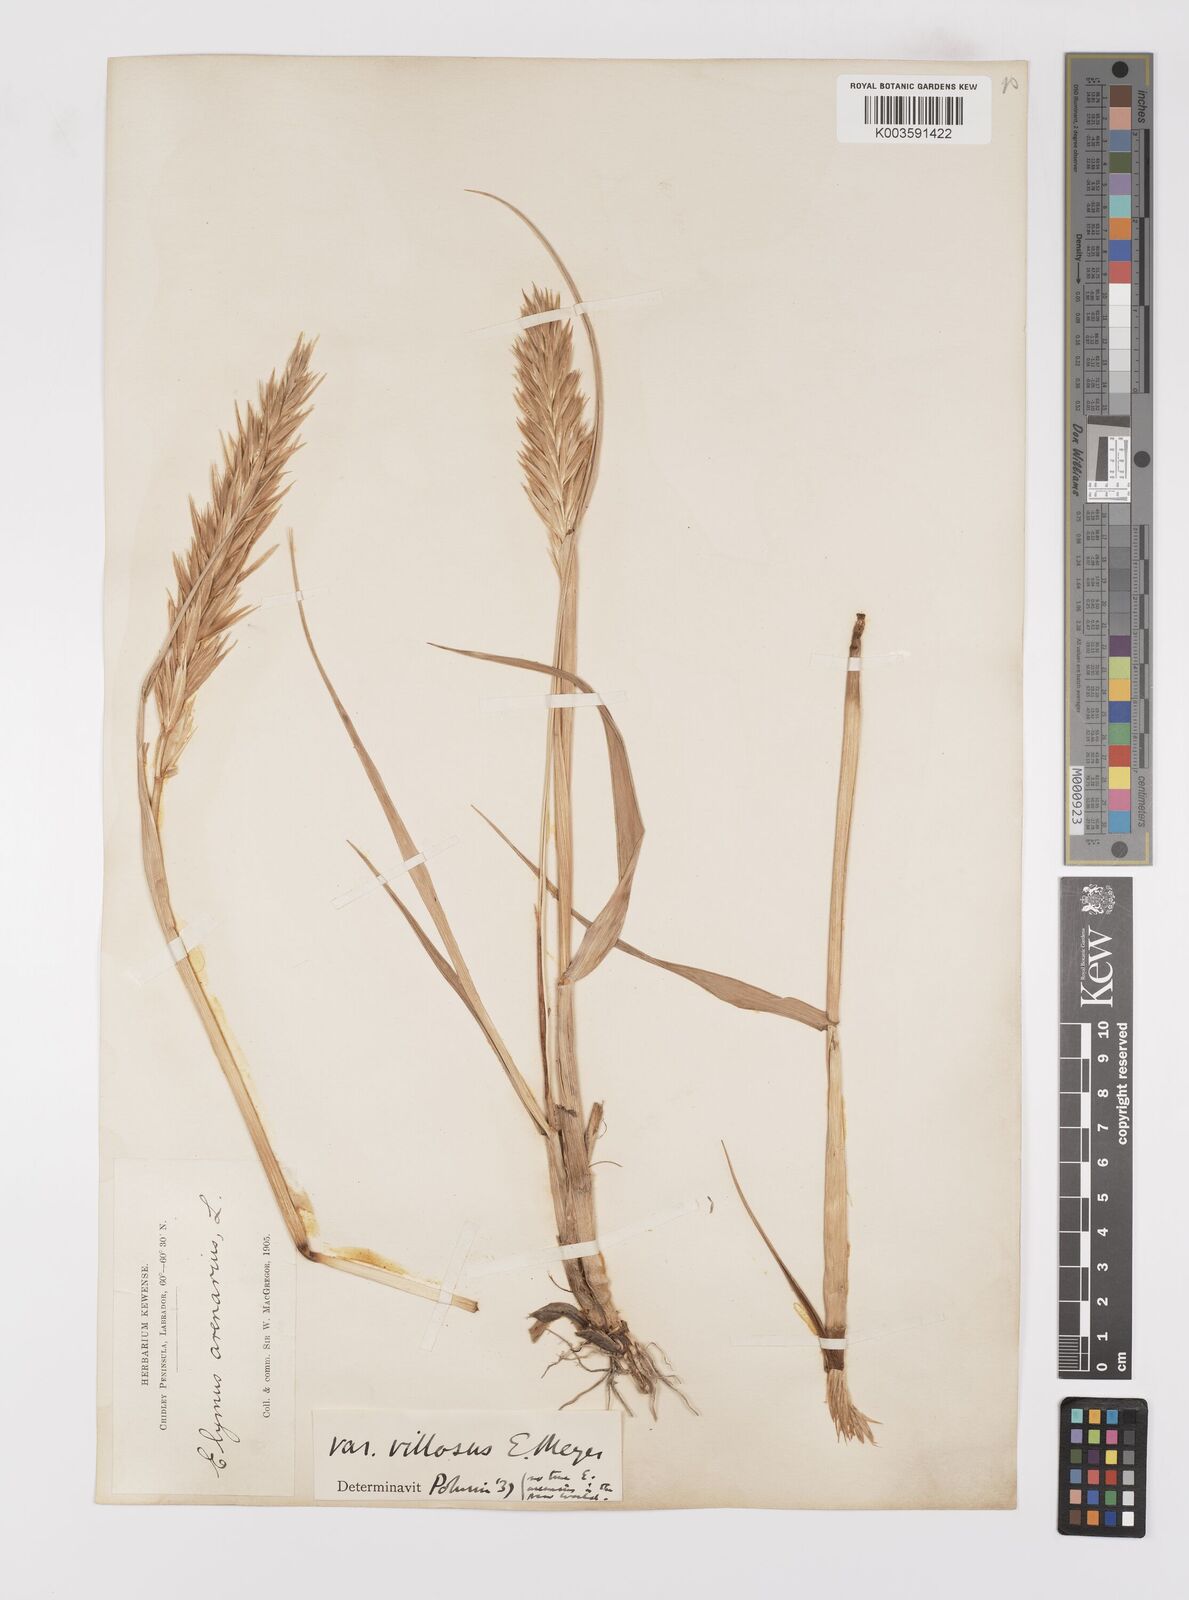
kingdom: Plantae
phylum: Tracheophyta
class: Liliopsida
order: Poales
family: Poaceae
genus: Leymus
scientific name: Leymus mollis
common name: American dune grass
